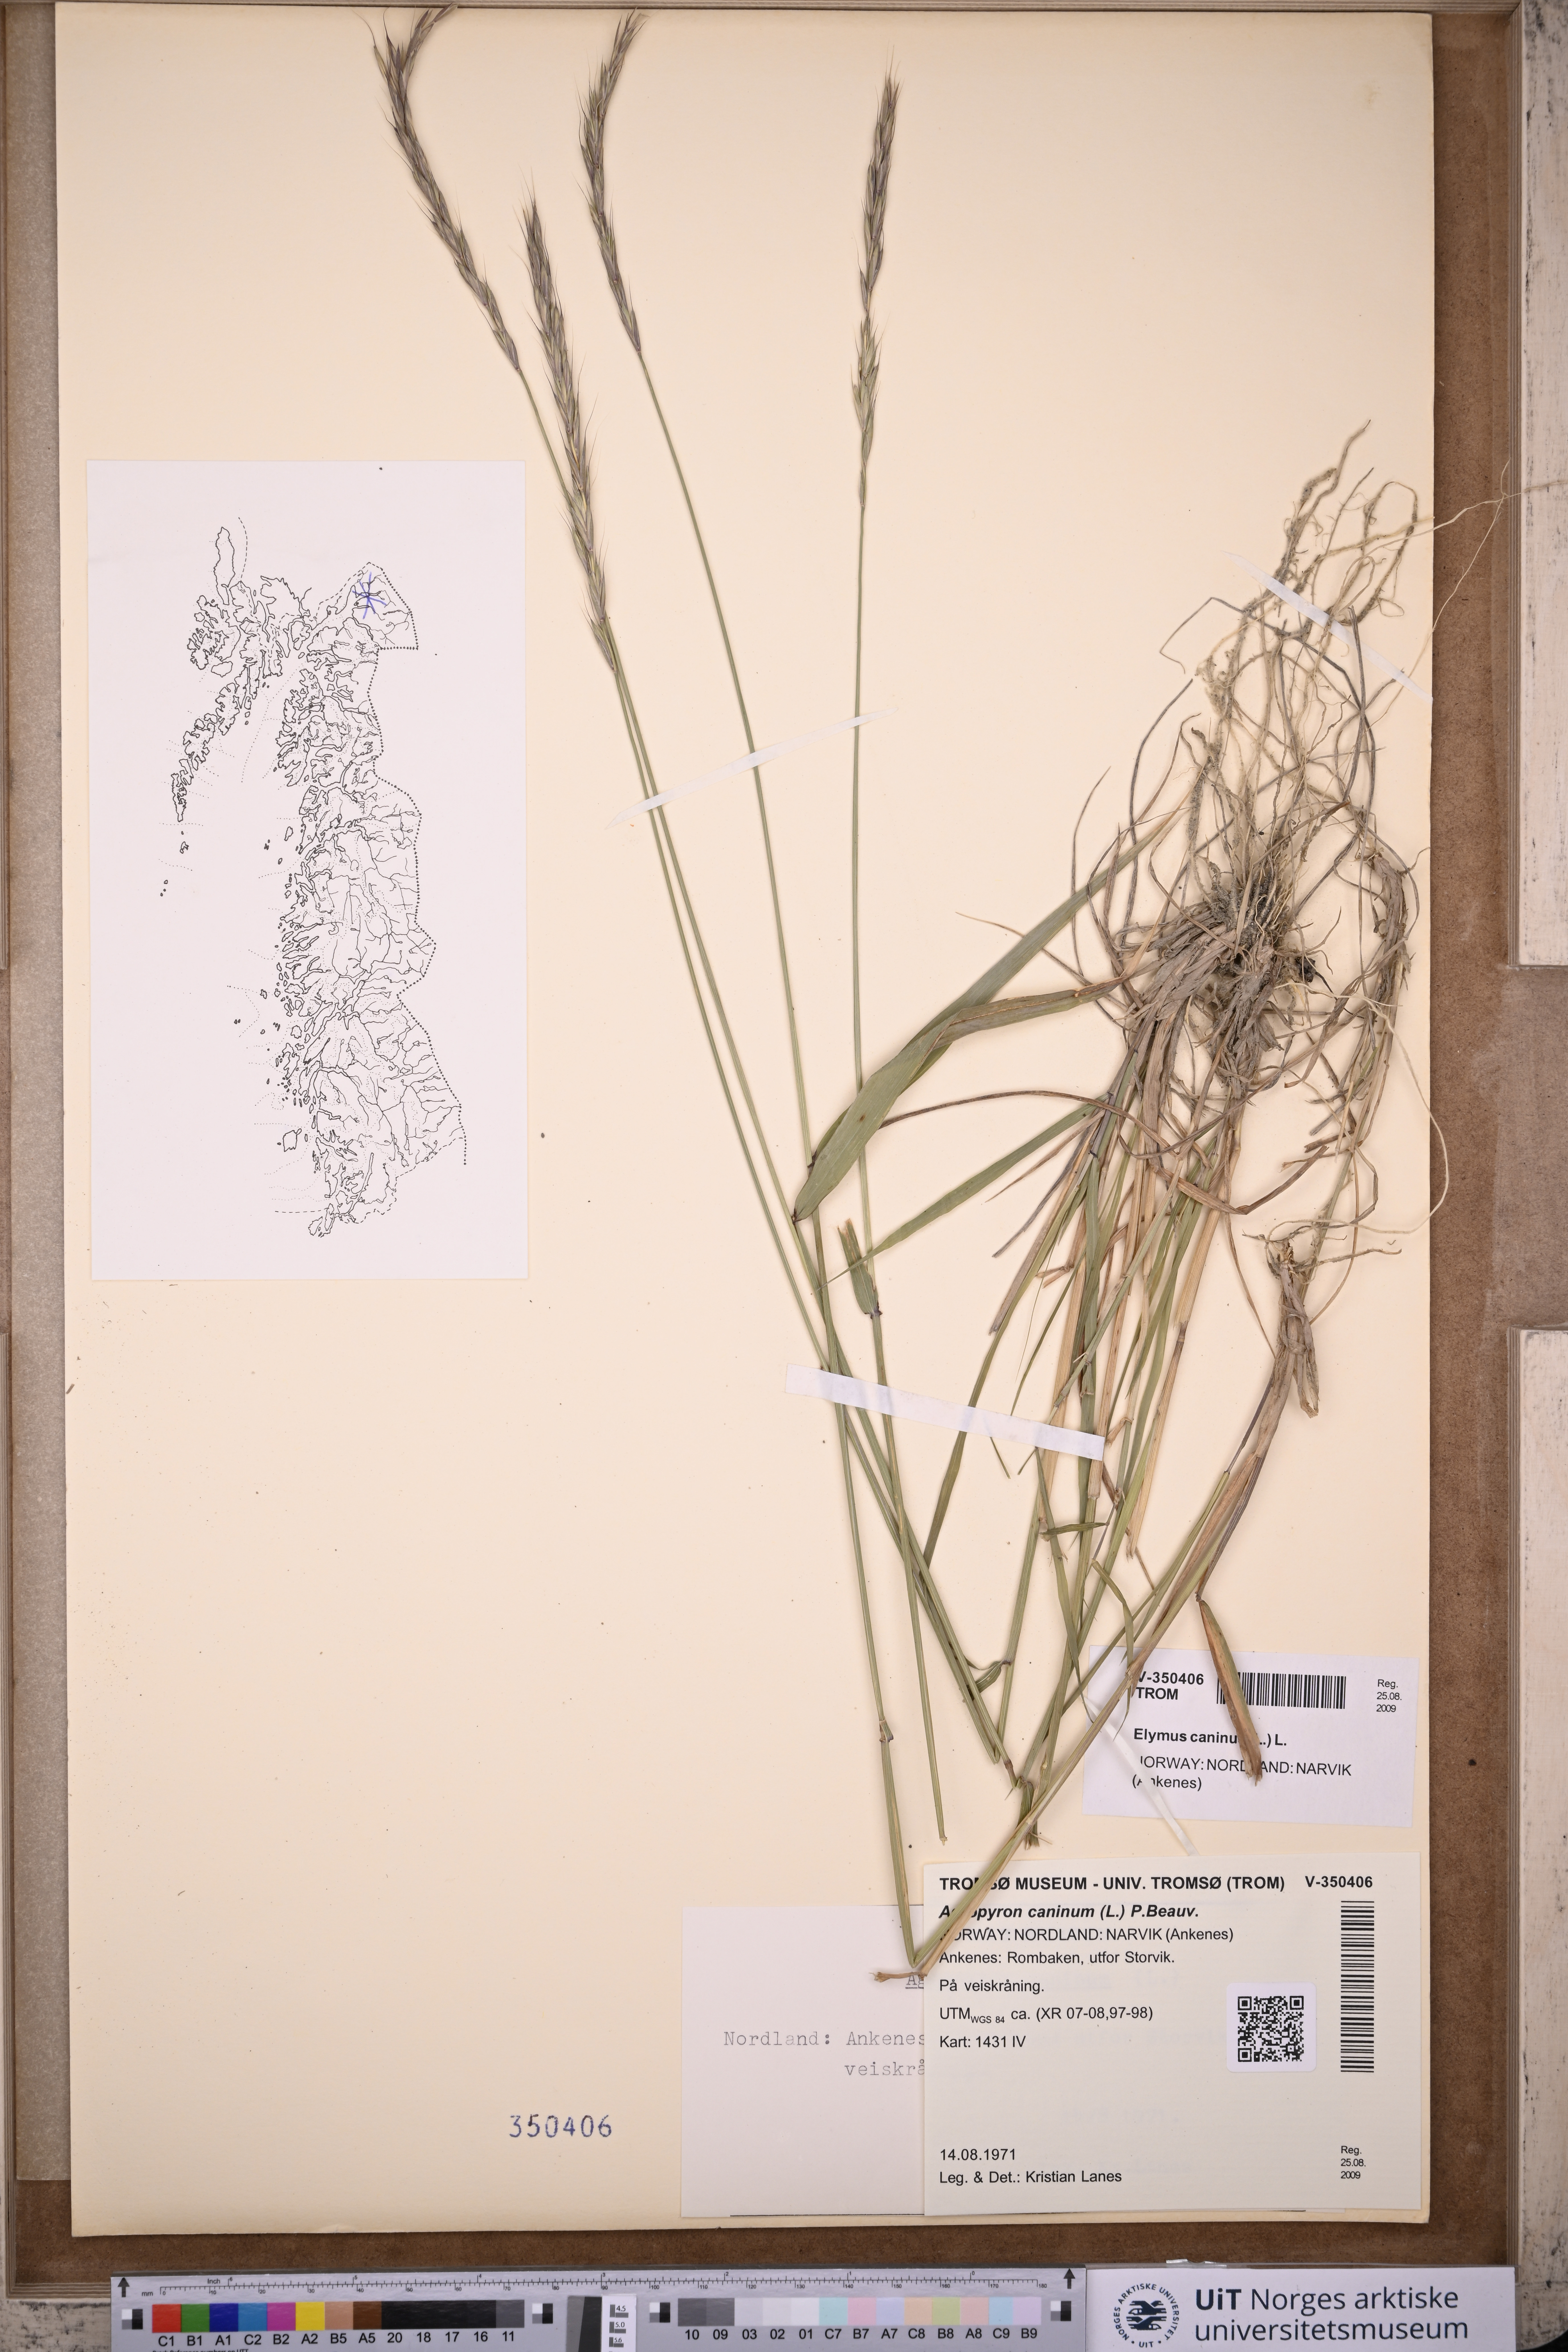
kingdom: Plantae
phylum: Tracheophyta
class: Liliopsida
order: Poales
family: Poaceae
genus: Elymus
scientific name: Elymus caninus
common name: Bearded couch
